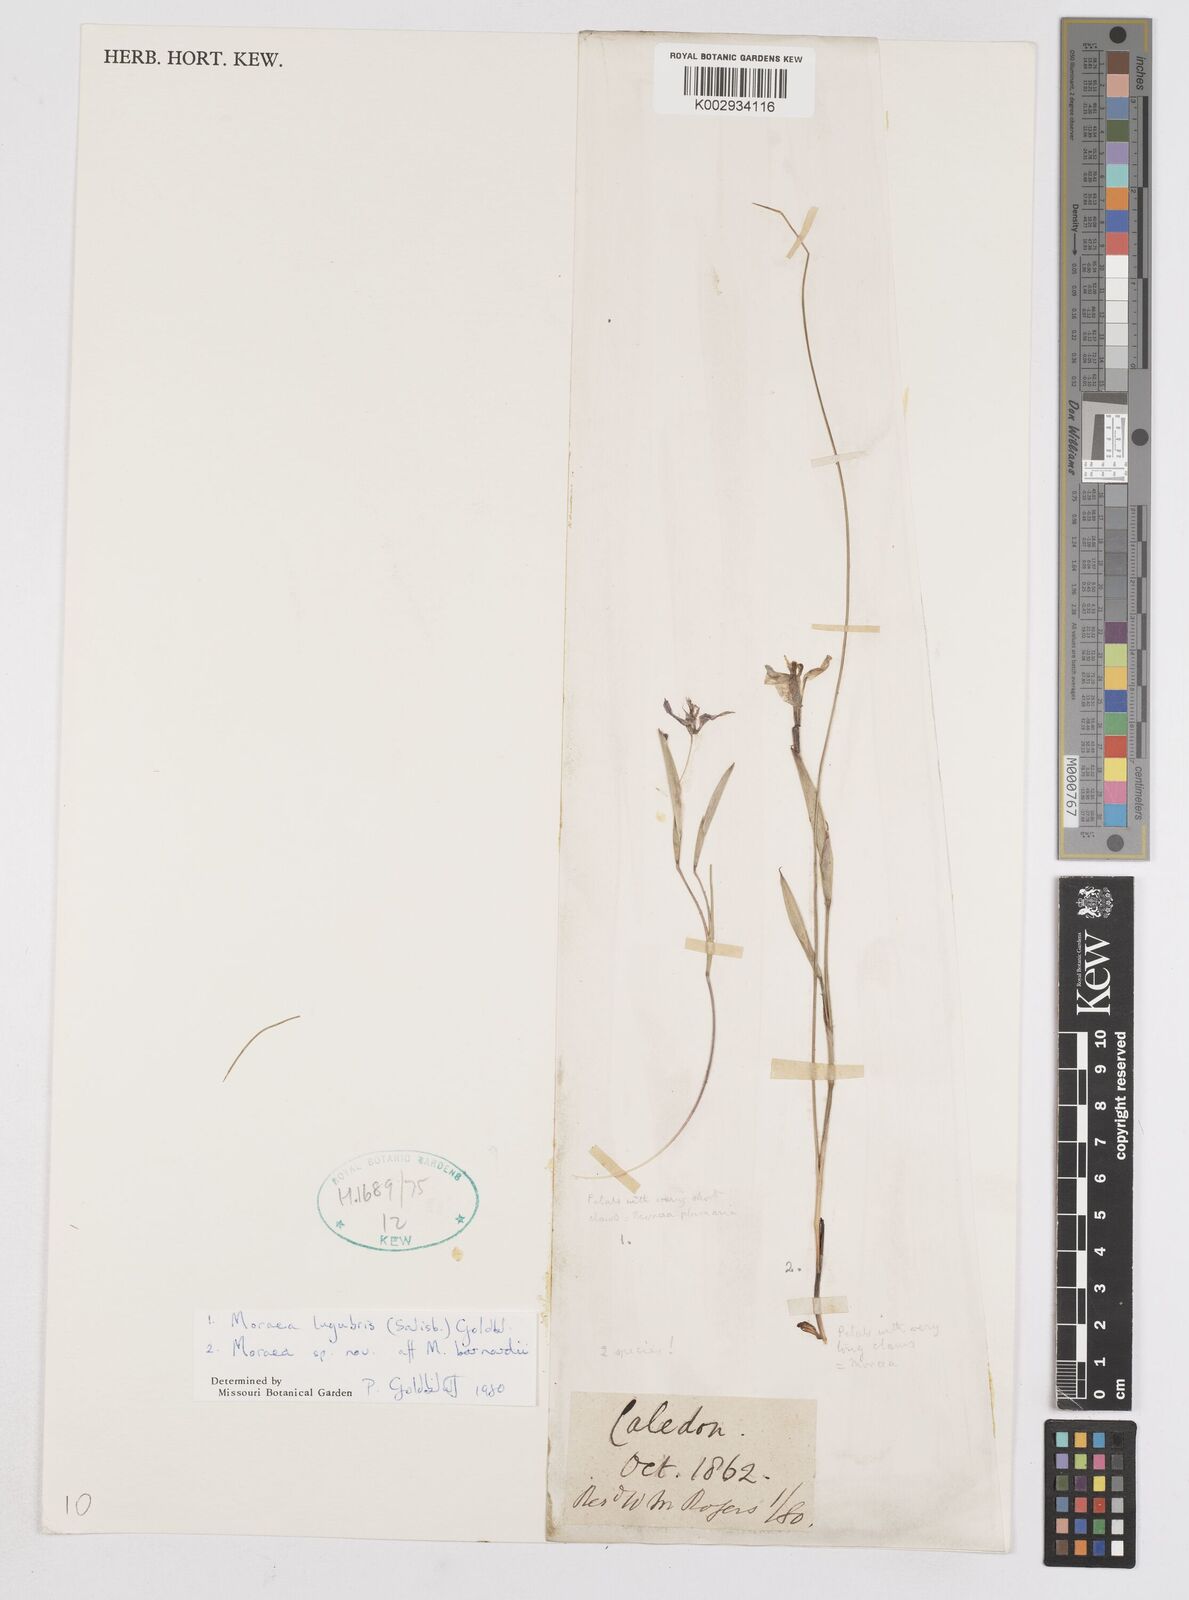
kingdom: Plantae
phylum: Tracheophyta
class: Liliopsida
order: Asparagales
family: Iridaceae
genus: Moraea
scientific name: Moraea lugubris
